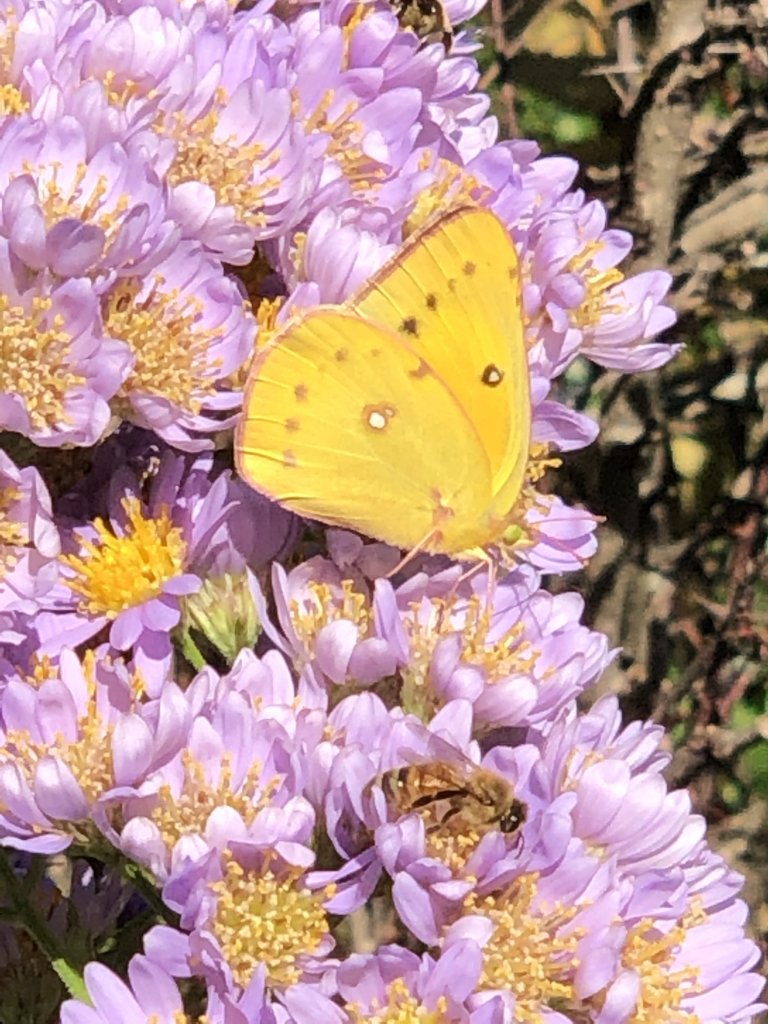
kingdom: Animalia
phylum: Arthropoda
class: Insecta
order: Lepidoptera
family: Pieridae
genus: Colias
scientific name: Colias eurytheme
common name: Orange Sulphur
